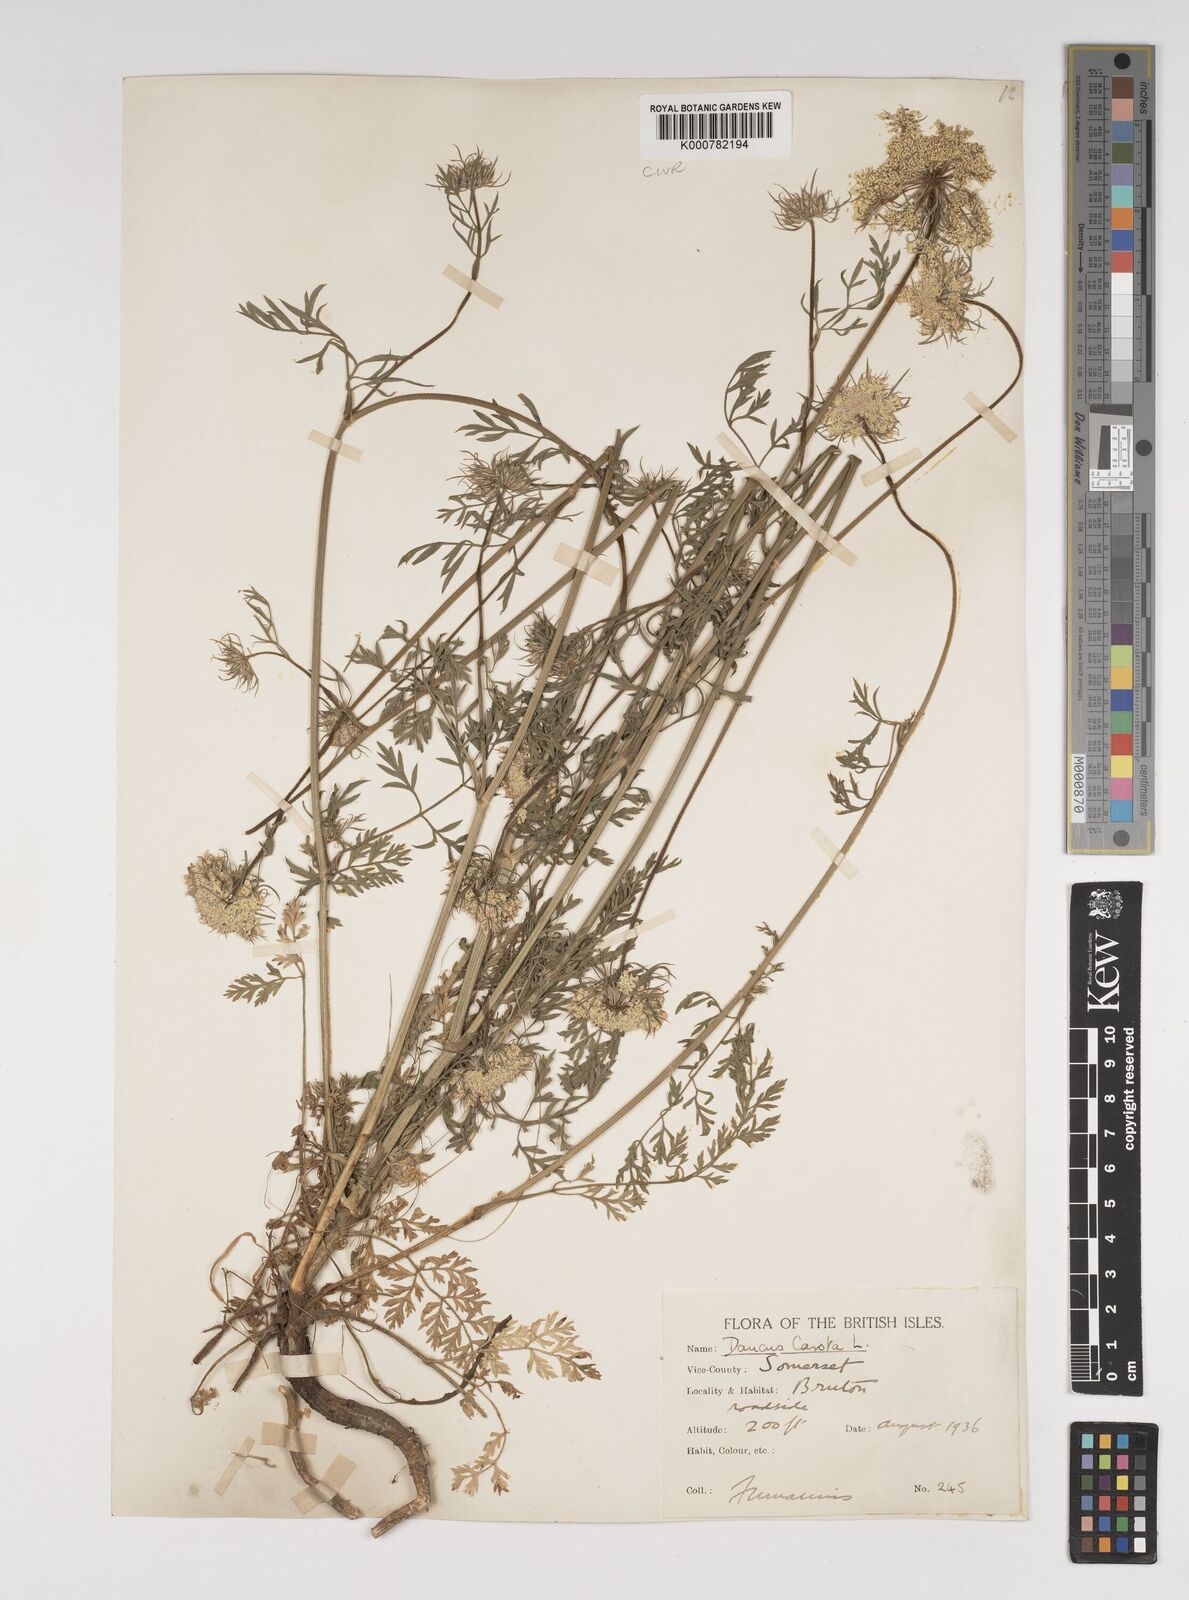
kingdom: Plantae
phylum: Tracheophyta
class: Magnoliopsida
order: Apiales
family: Apiaceae
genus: Daucus
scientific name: Daucus carota
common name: Wild carrot
